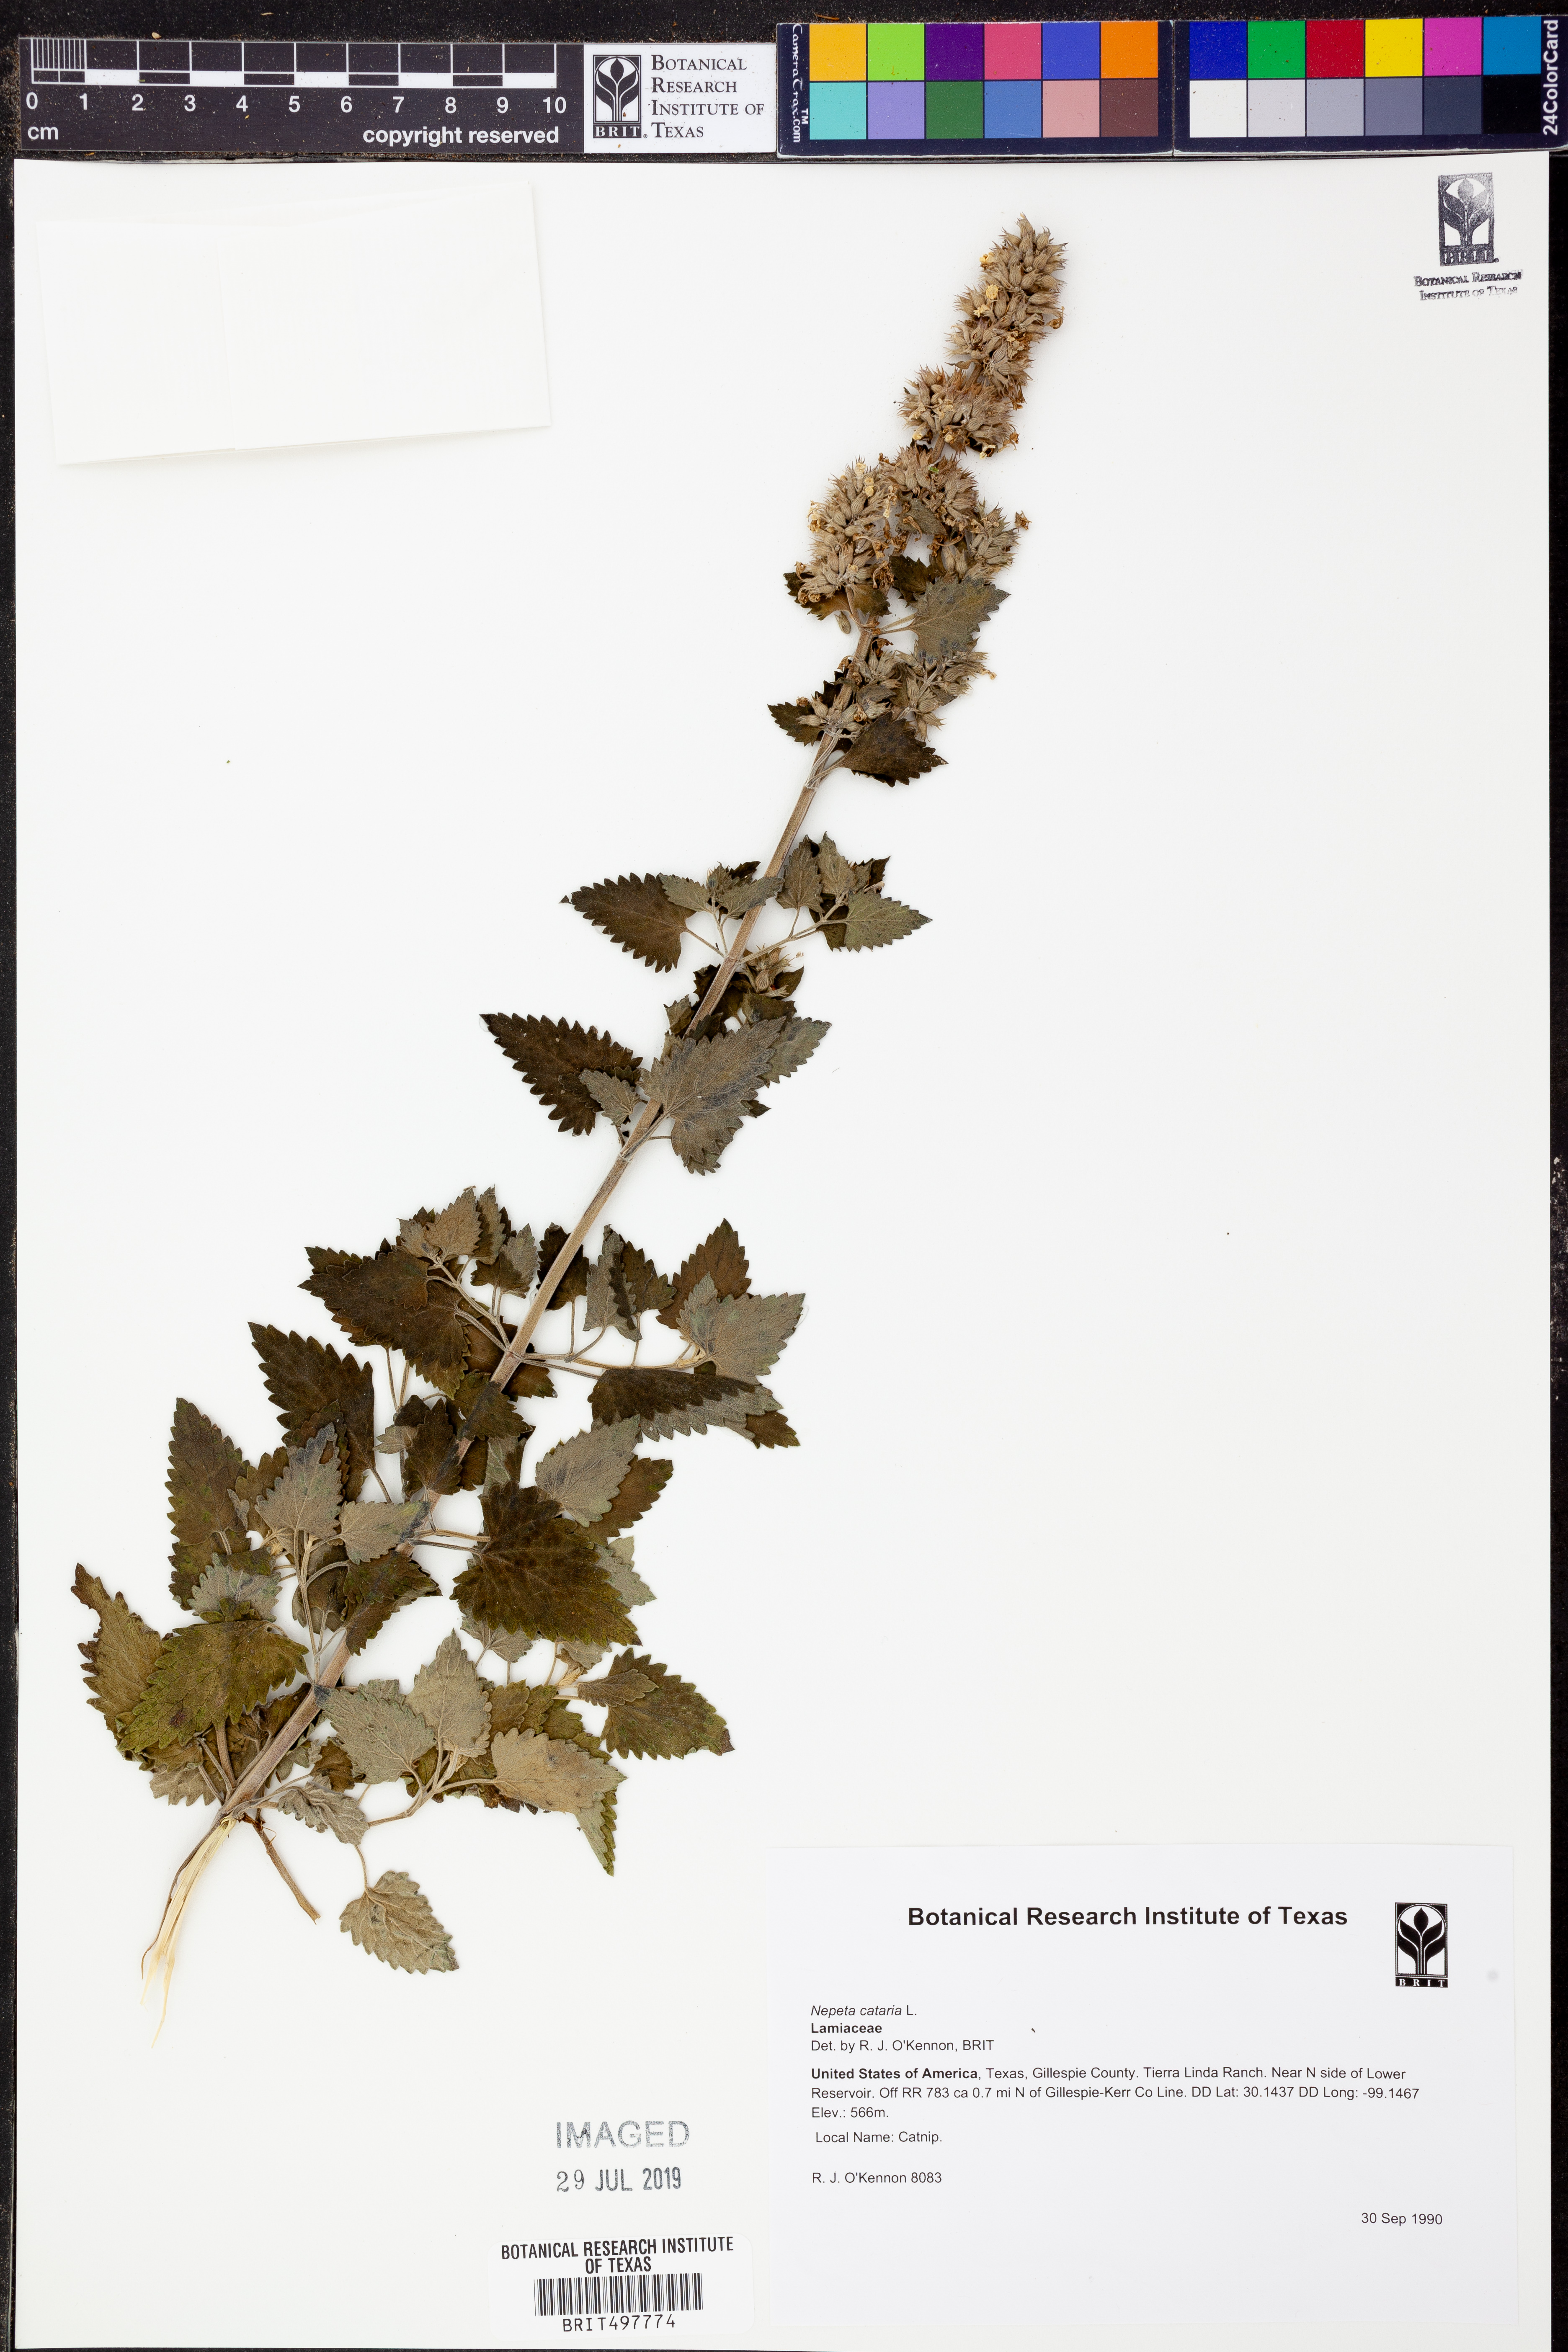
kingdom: Plantae
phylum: Tracheophyta
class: Magnoliopsida
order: Lamiales
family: Lamiaceae
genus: Nepeta
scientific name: Nepeta cataria
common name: Catnip
